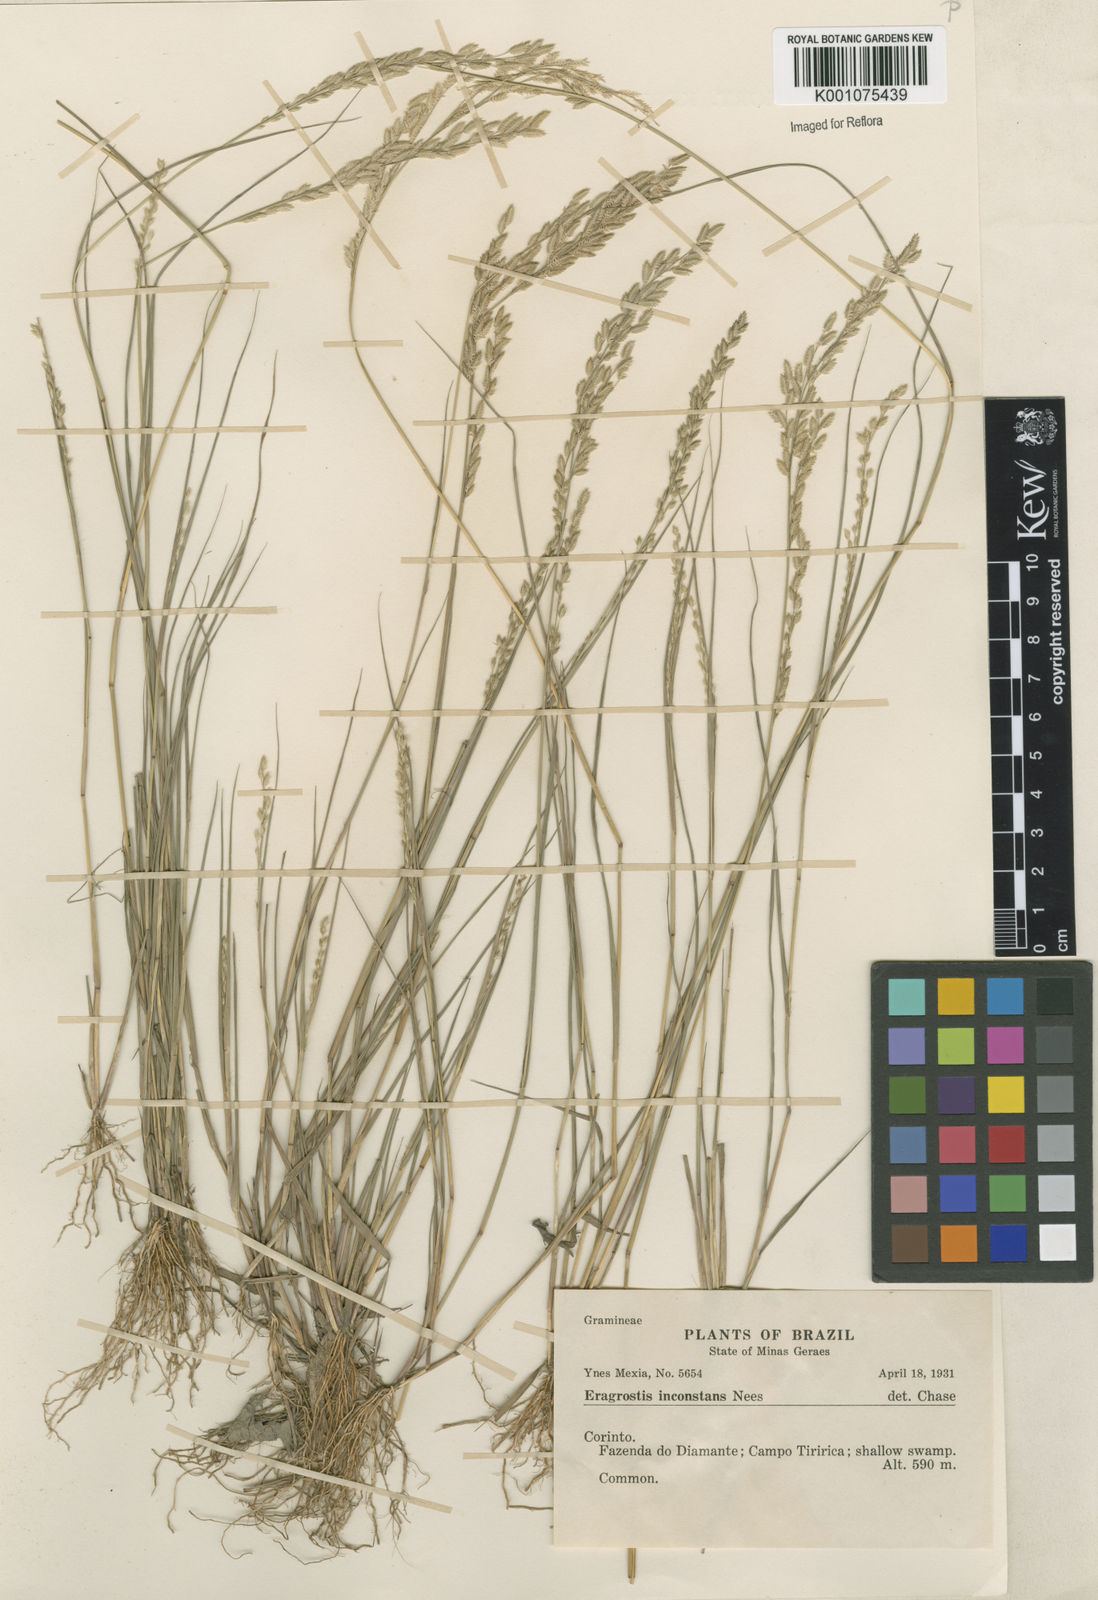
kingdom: Plantae
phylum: Tracheophyta
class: Liliopsida
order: Poales
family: Poaceae
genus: Eragrostis
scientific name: Eragrostis rufescens
